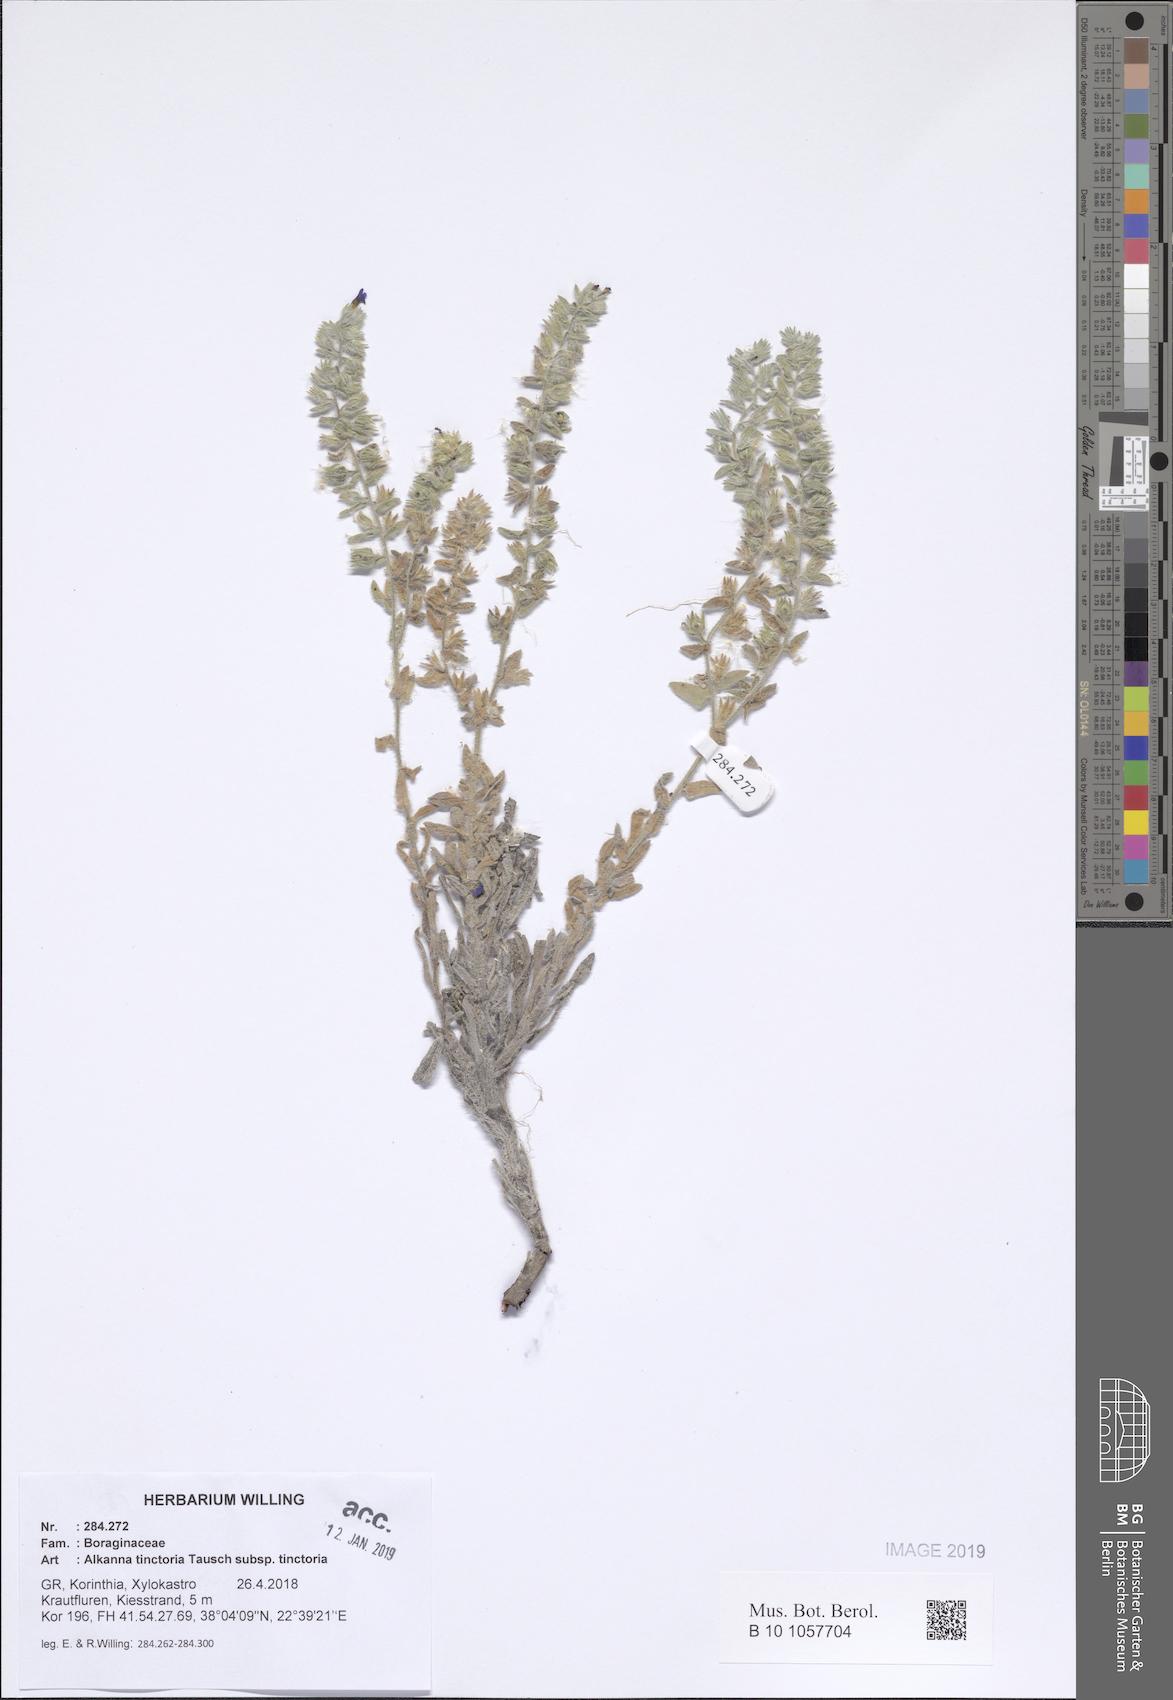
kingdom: Plantae
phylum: Tracheophyta
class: Magnoliopsida
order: Boraginales
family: Boraginaceae
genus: Alkanna
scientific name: Alkanna tinctoria
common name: Dyer's-alkanet
